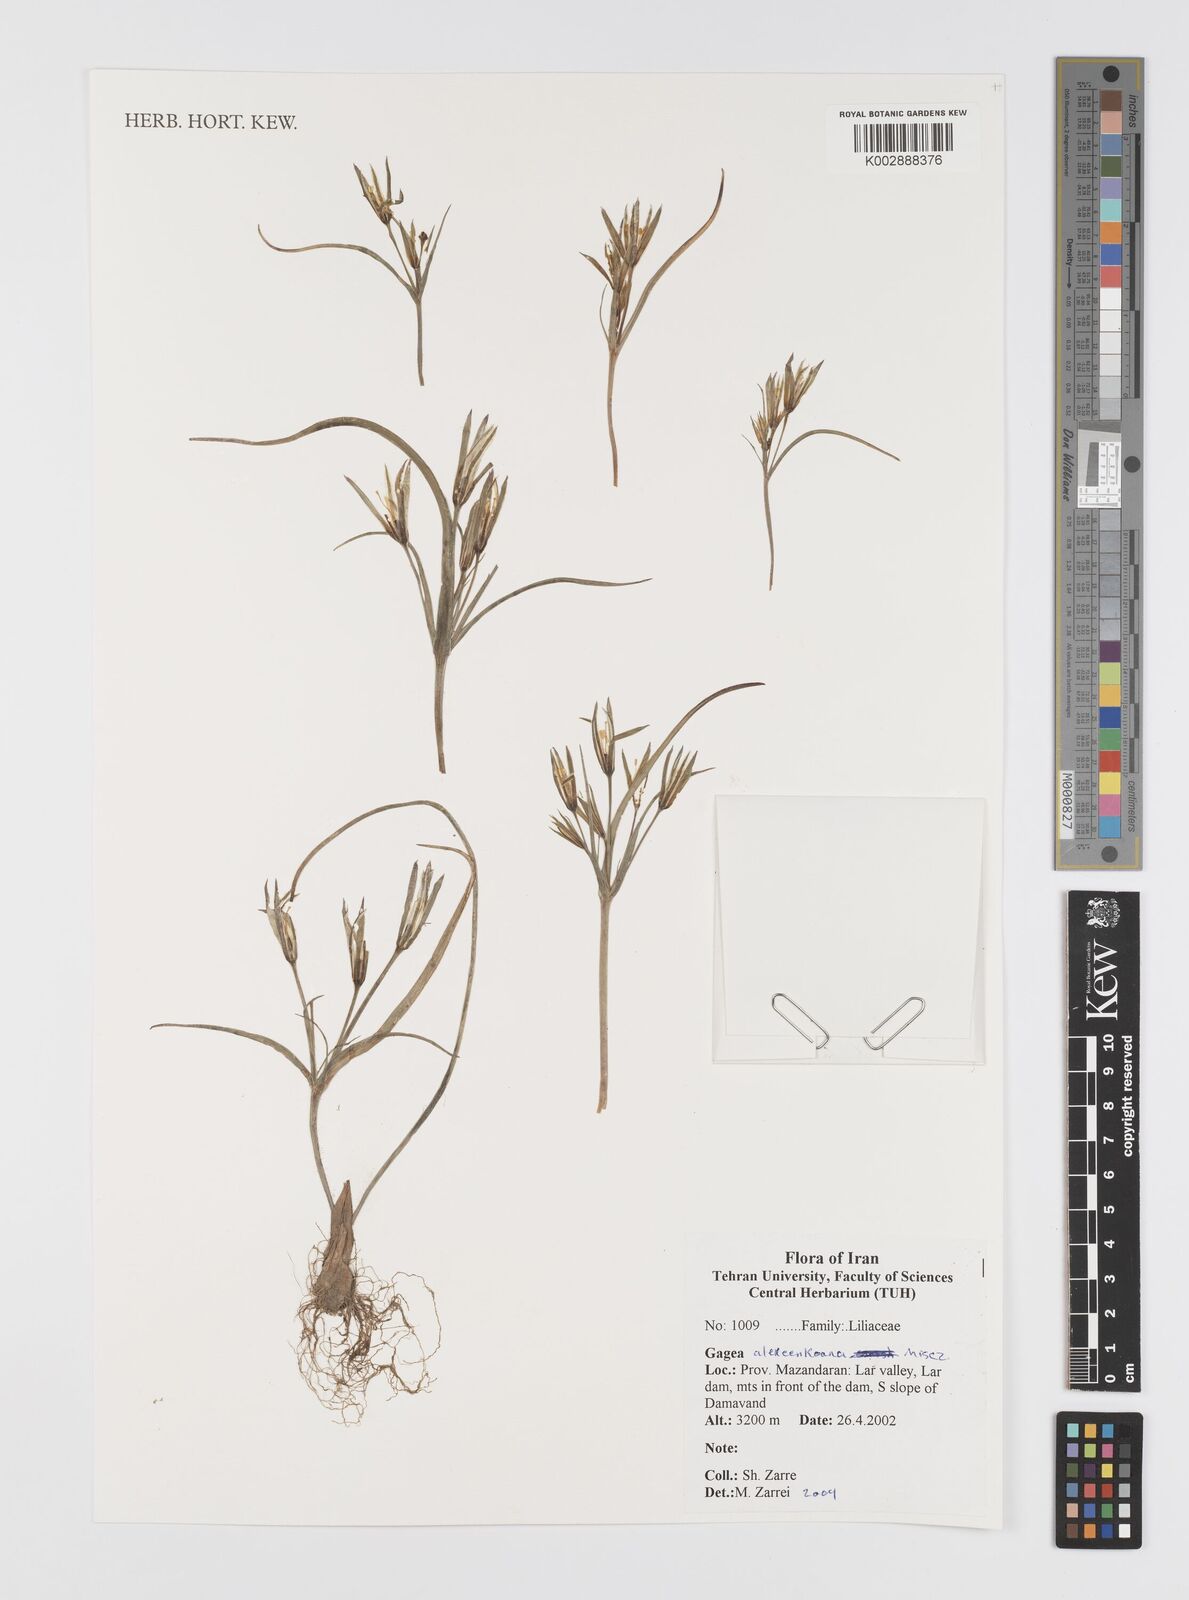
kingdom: Plantae
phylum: Tracheophyta
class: Liliopsida
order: Liliales
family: Liliaceae
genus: Gagea
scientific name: Gagea alexeenkoana
